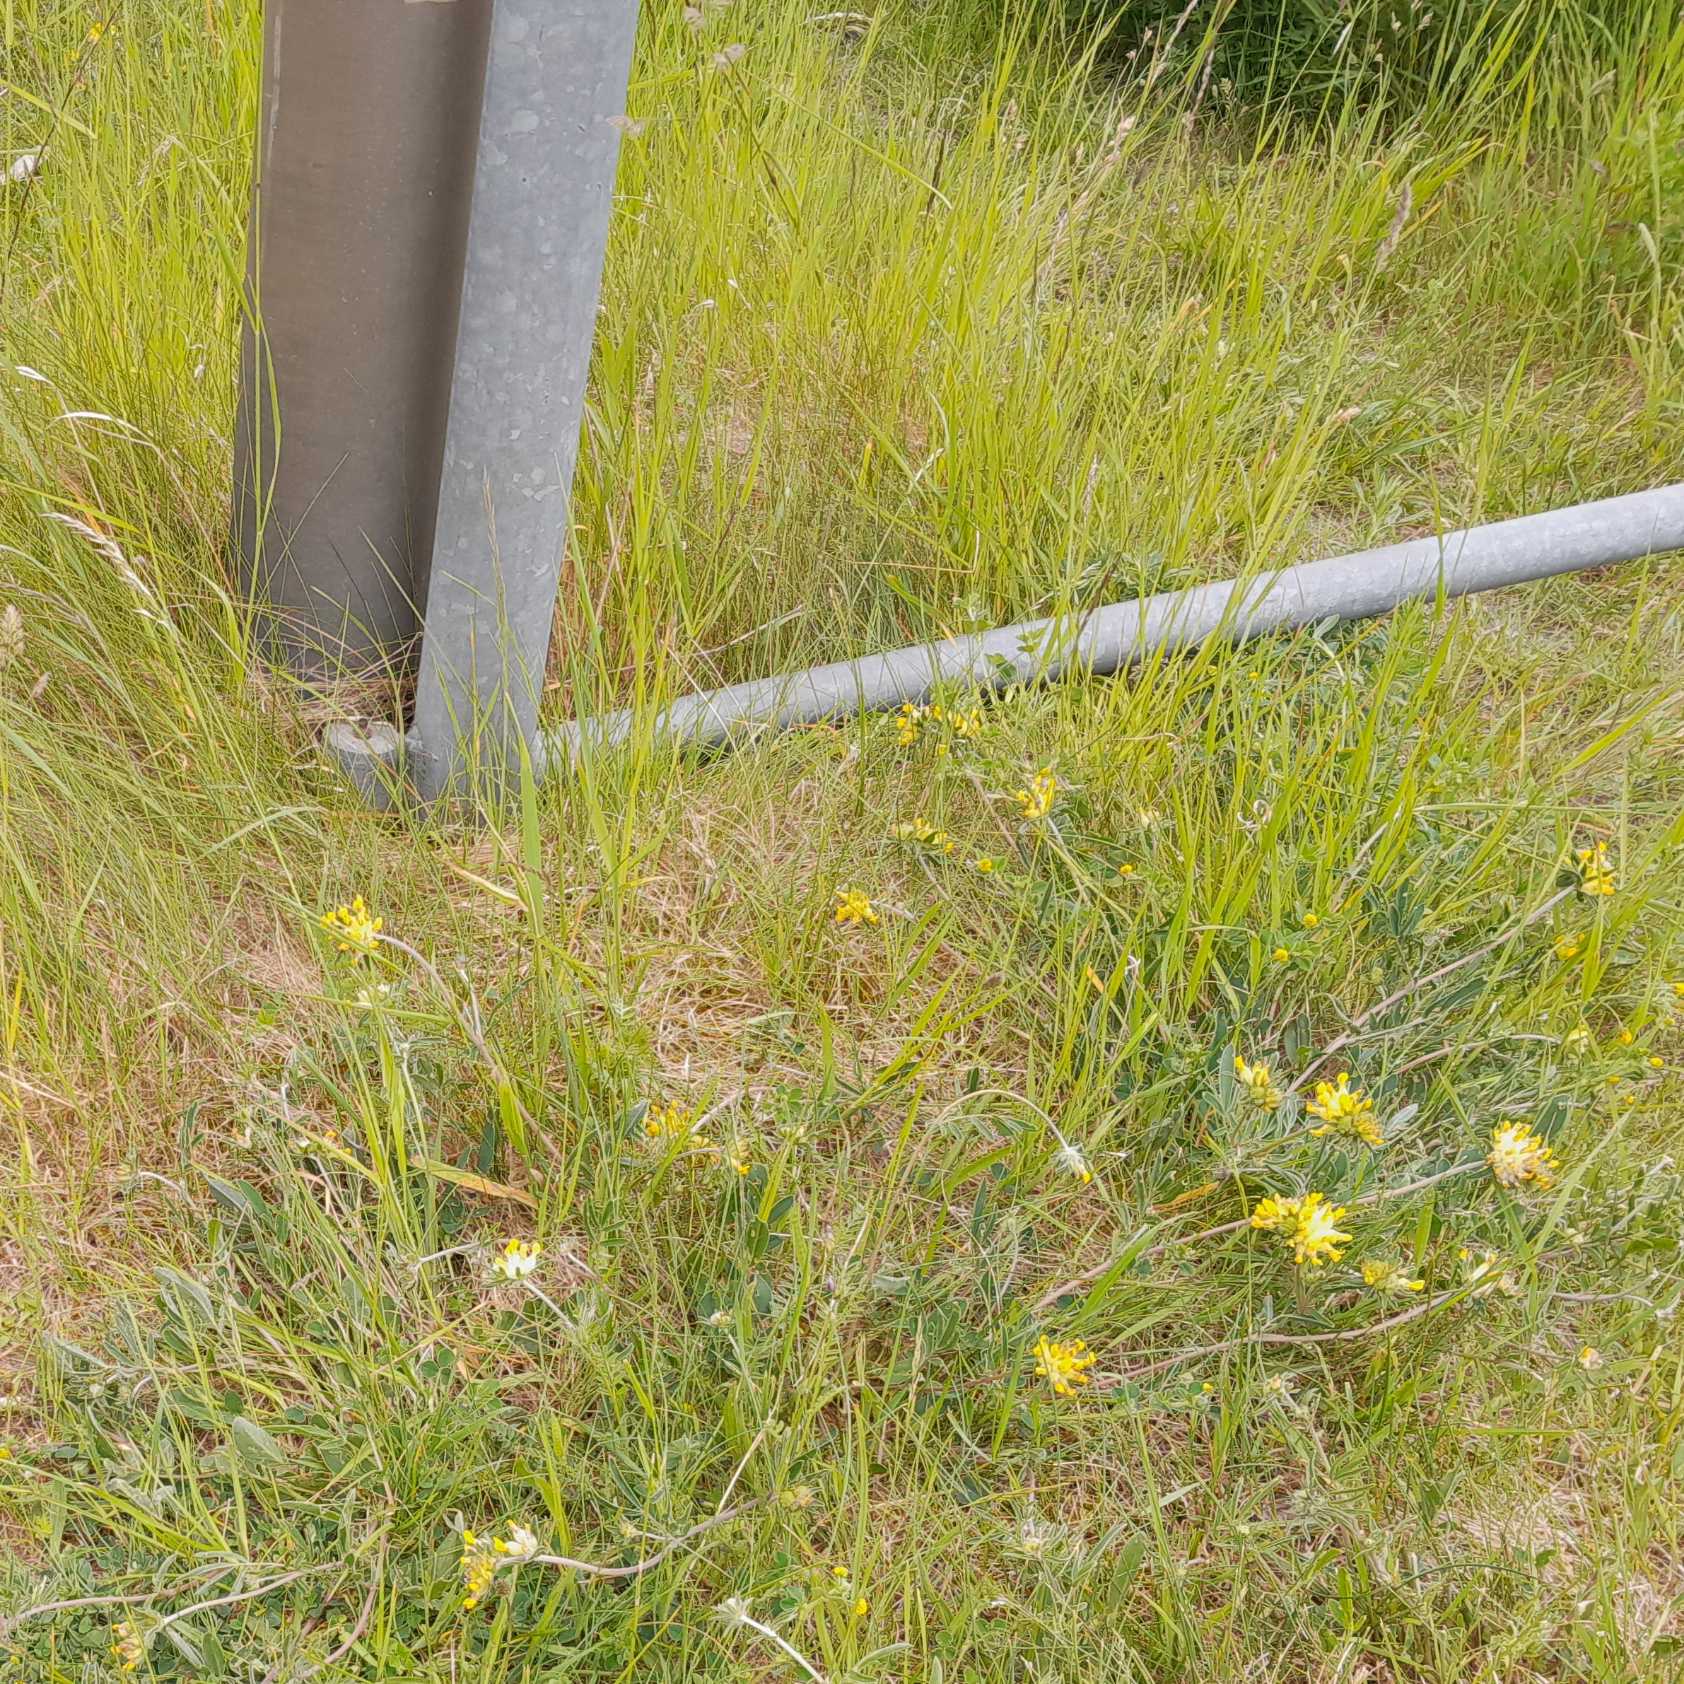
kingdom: Plantae
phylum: Tracheophyta
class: Magnoliopsida
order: Fabales
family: Fabaceae
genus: Anthyllis
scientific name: Anthyllis vulneraria
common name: Rundbælg
